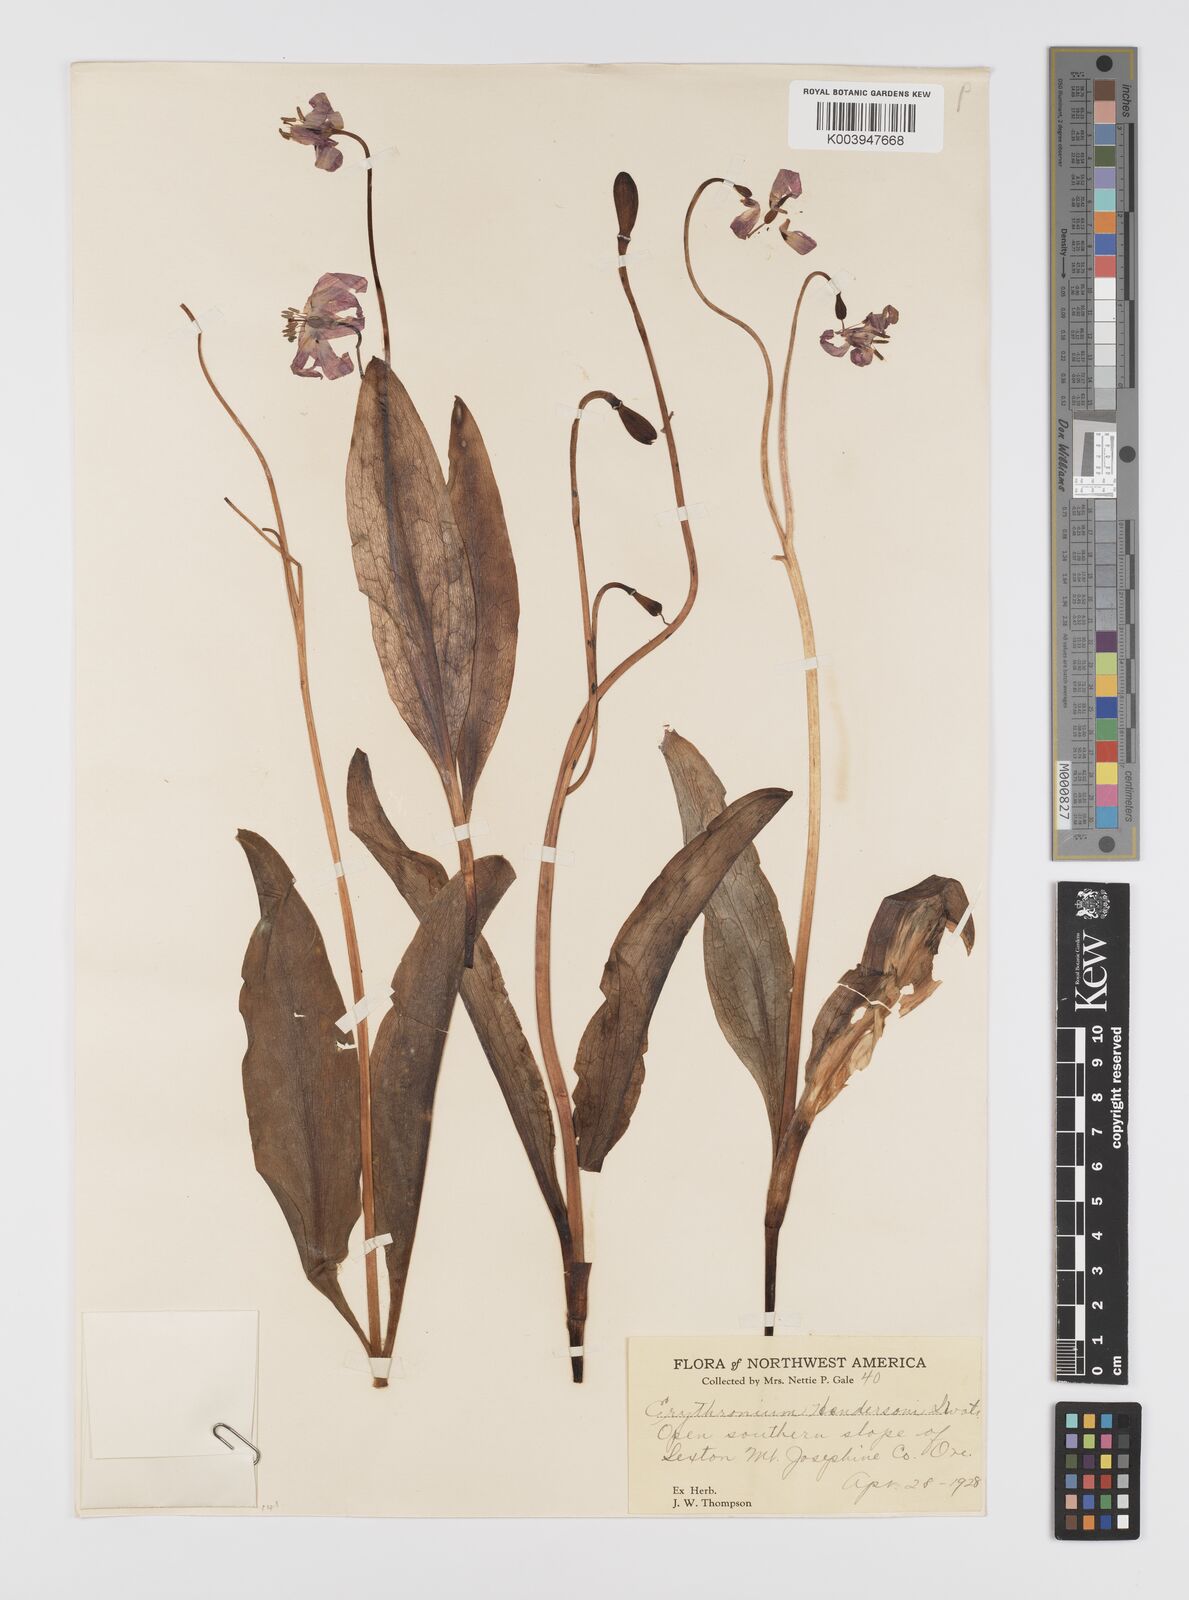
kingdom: Plantae
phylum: Tracheophyta
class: Liliopsida
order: Liliales
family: Liliaceae
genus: Erythronium
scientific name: Erythronium hendersonii
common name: Henderson's fawn-lily
